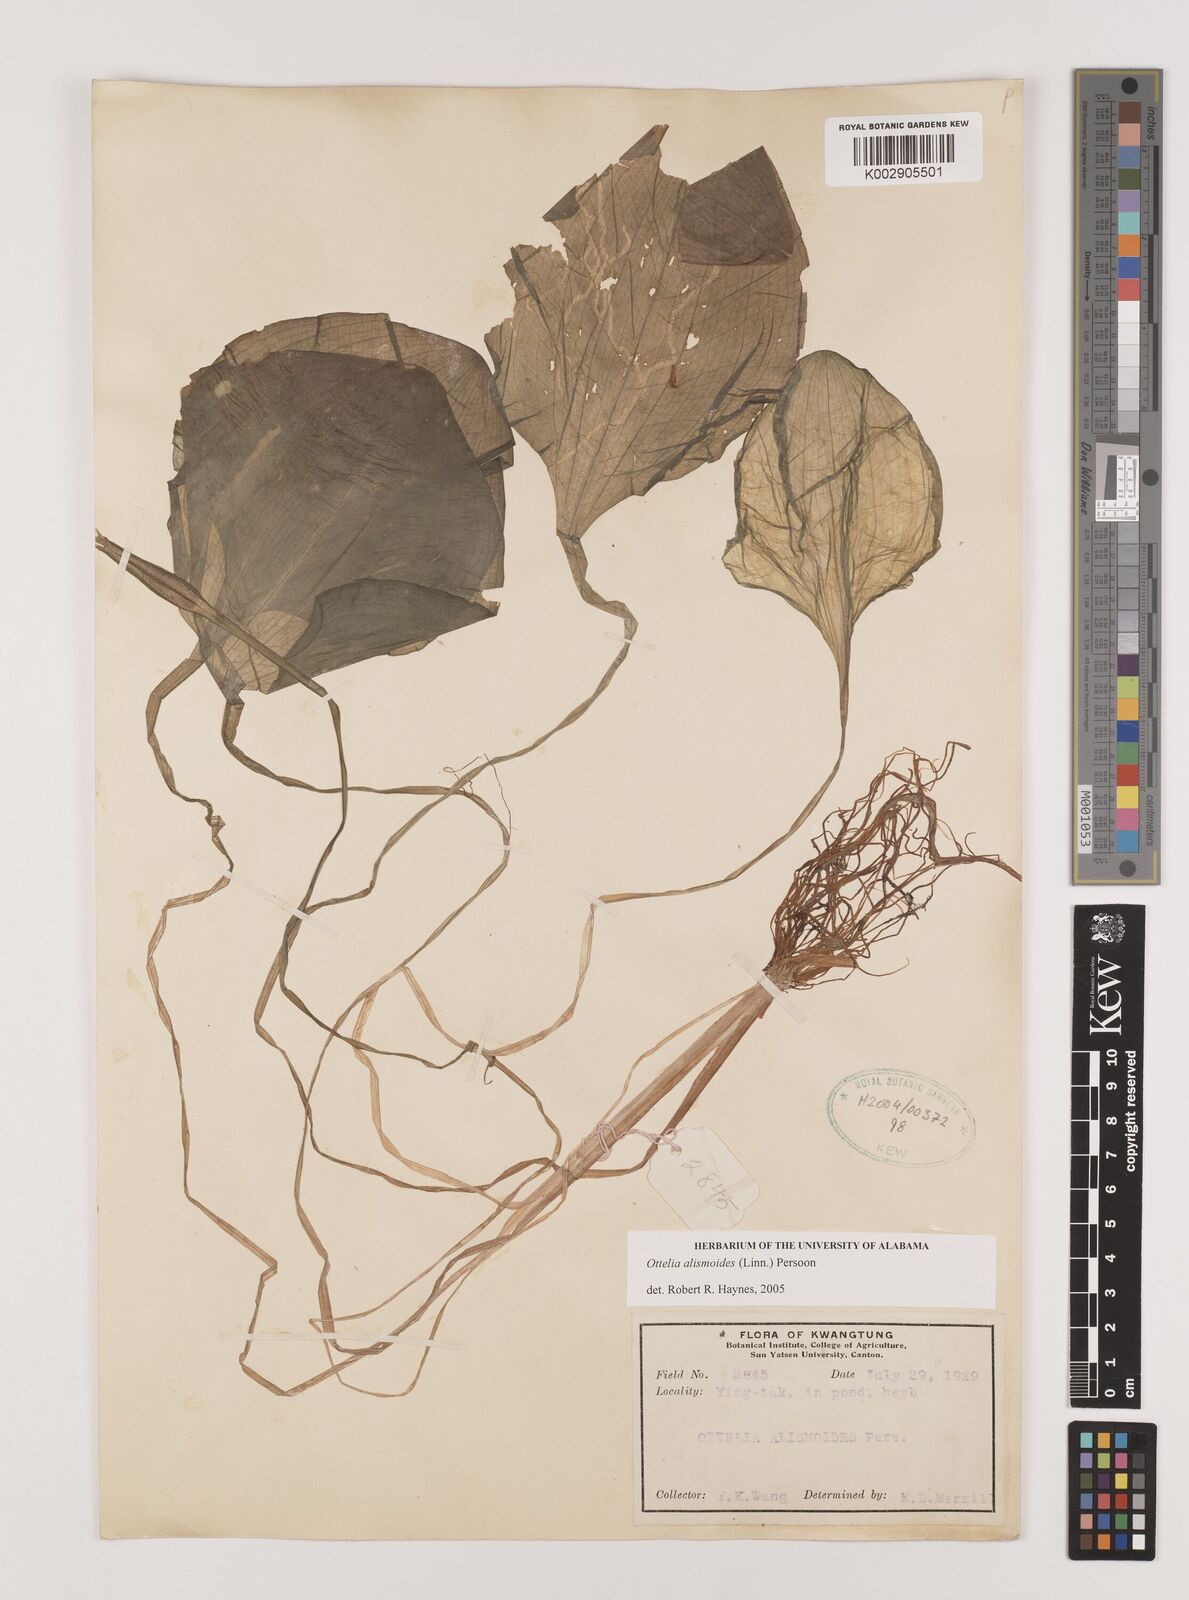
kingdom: Plantae
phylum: Tracheophyta
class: Liliopsida
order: Alismatales
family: Hydrocharitaceae
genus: Ottelia
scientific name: Ottelia alismoides
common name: Duck-lettuce
